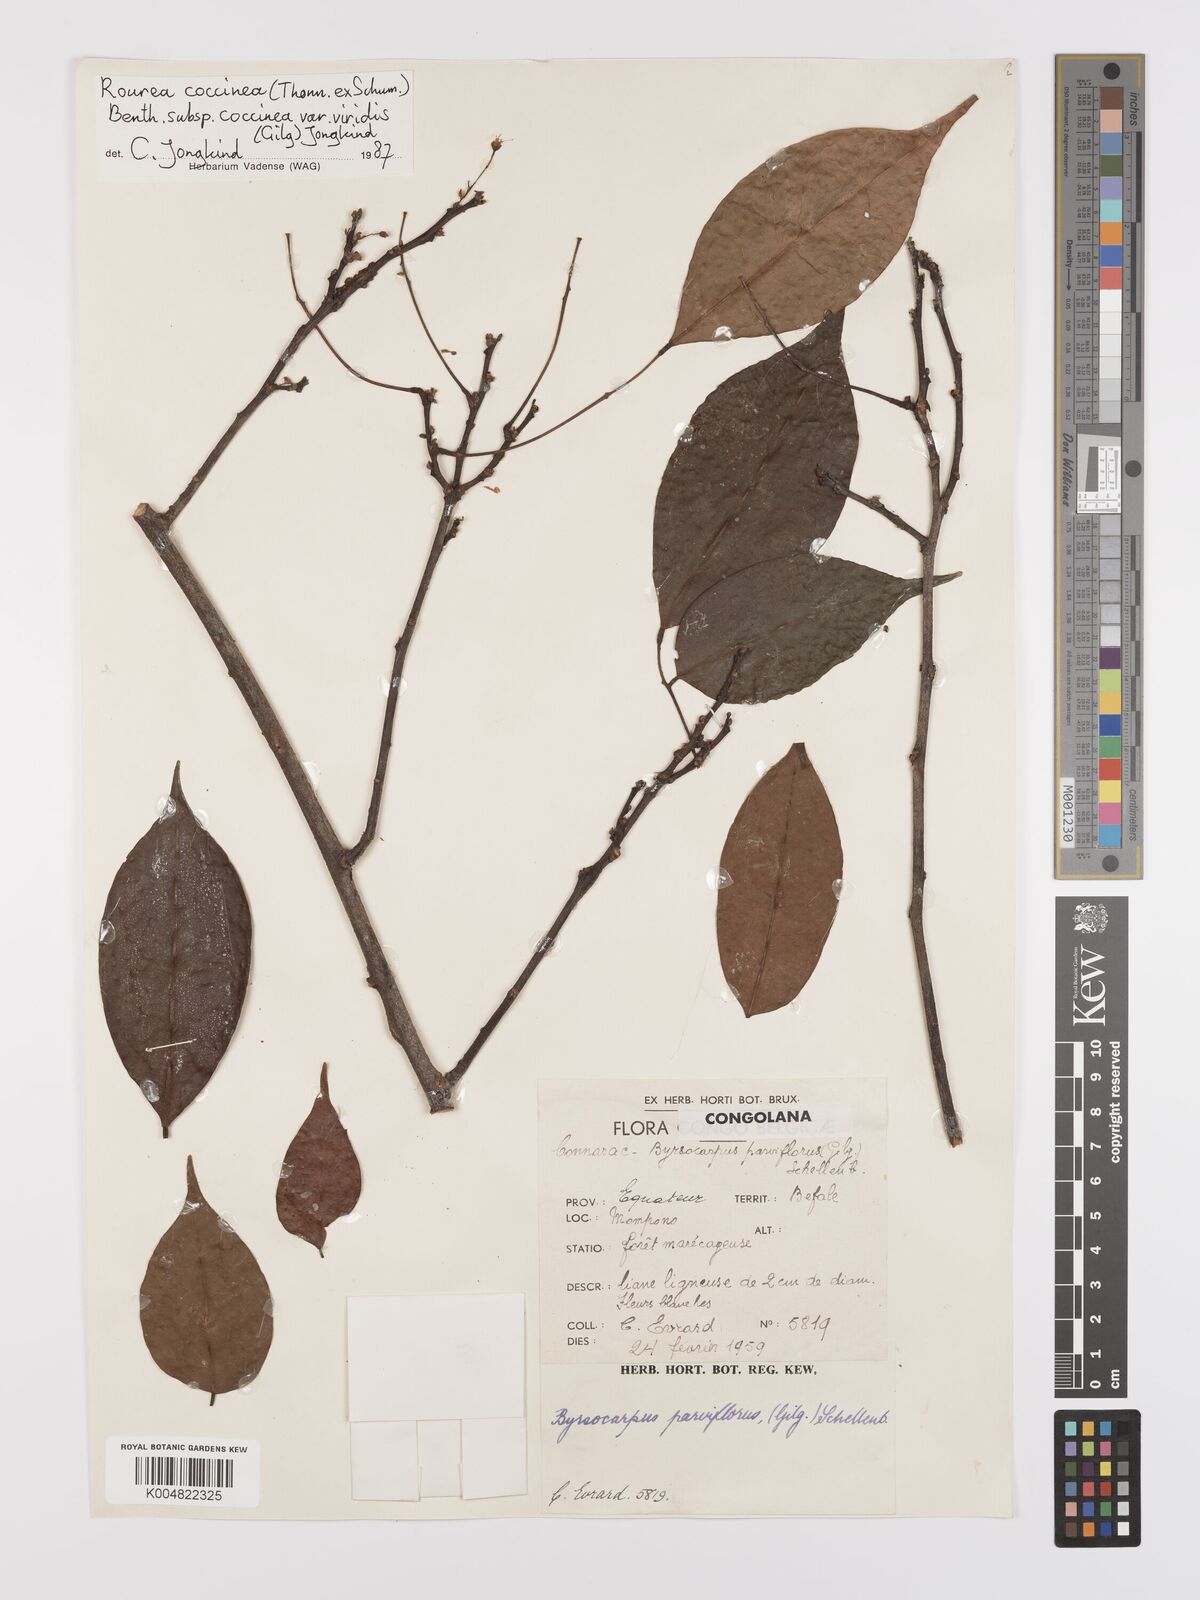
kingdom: Plantae
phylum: Tracheophyta
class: Magnoliopsida
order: Oxalidales
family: Connaraceae
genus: Rourea
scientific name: Rourea
